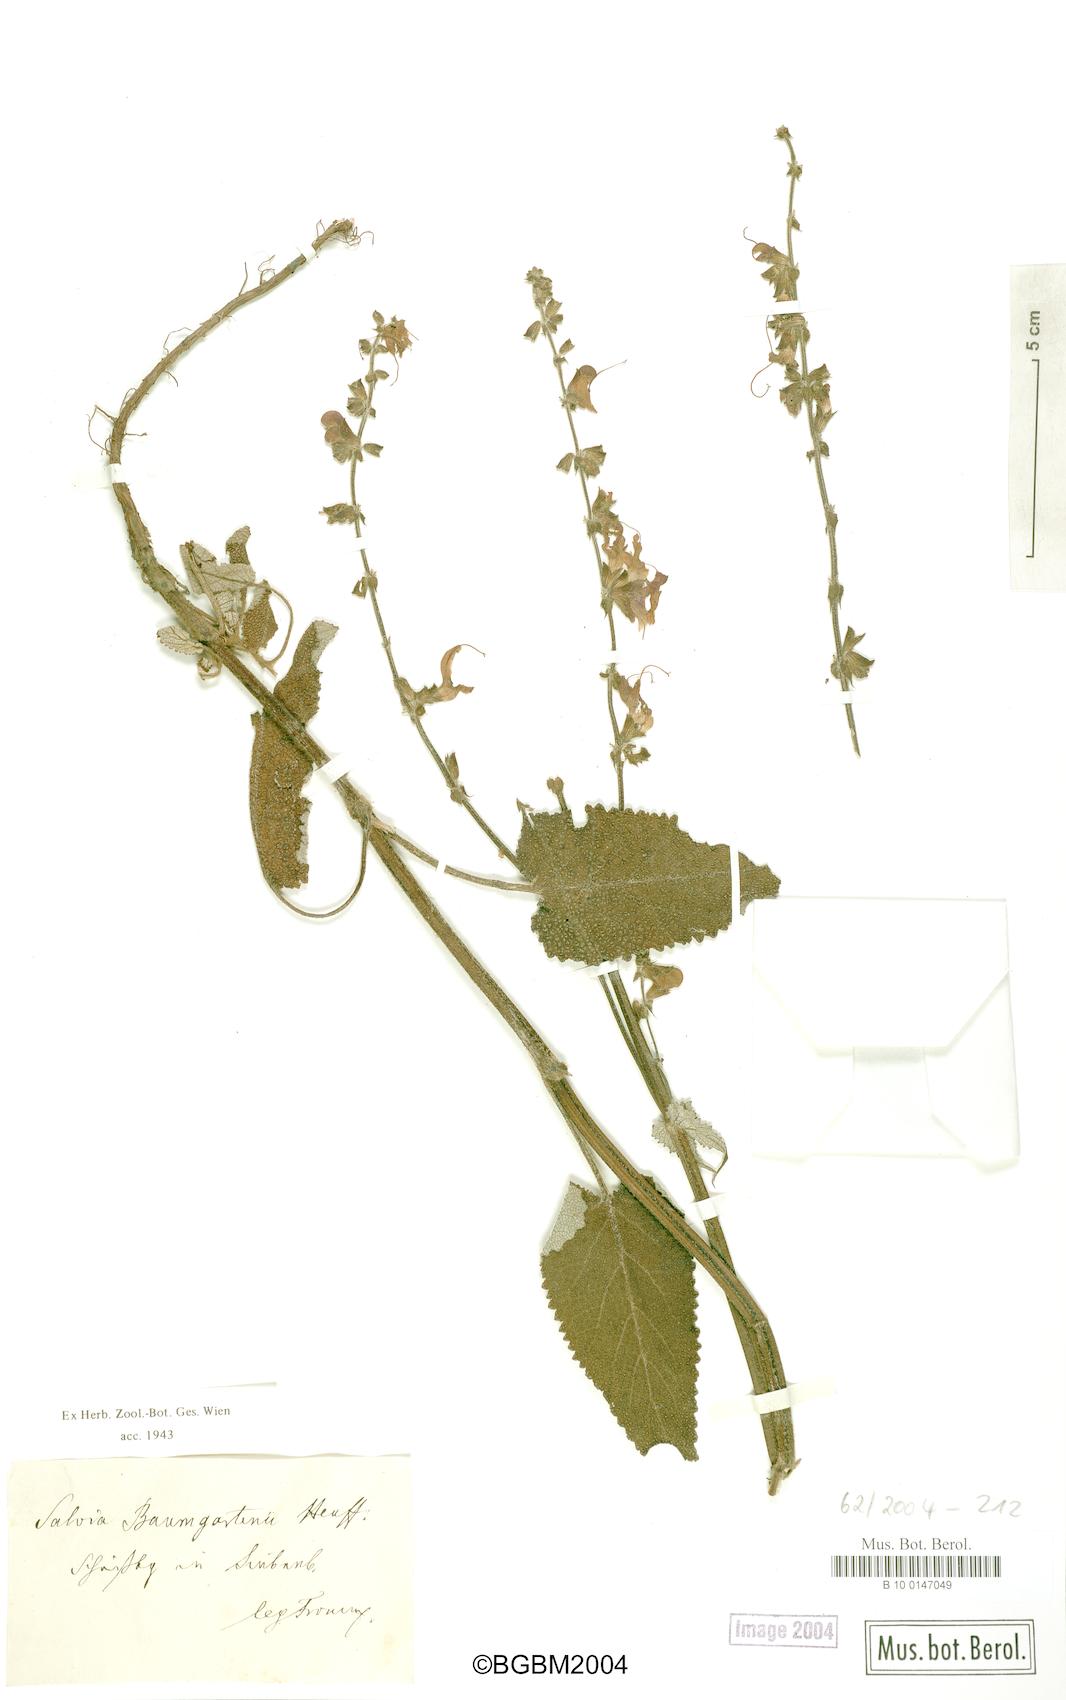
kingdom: Plantae
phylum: Tracheophyta
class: Magnoliopsida
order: Lamiales
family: Lamiaceae
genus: Salvia
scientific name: Salvia transsylvanica
